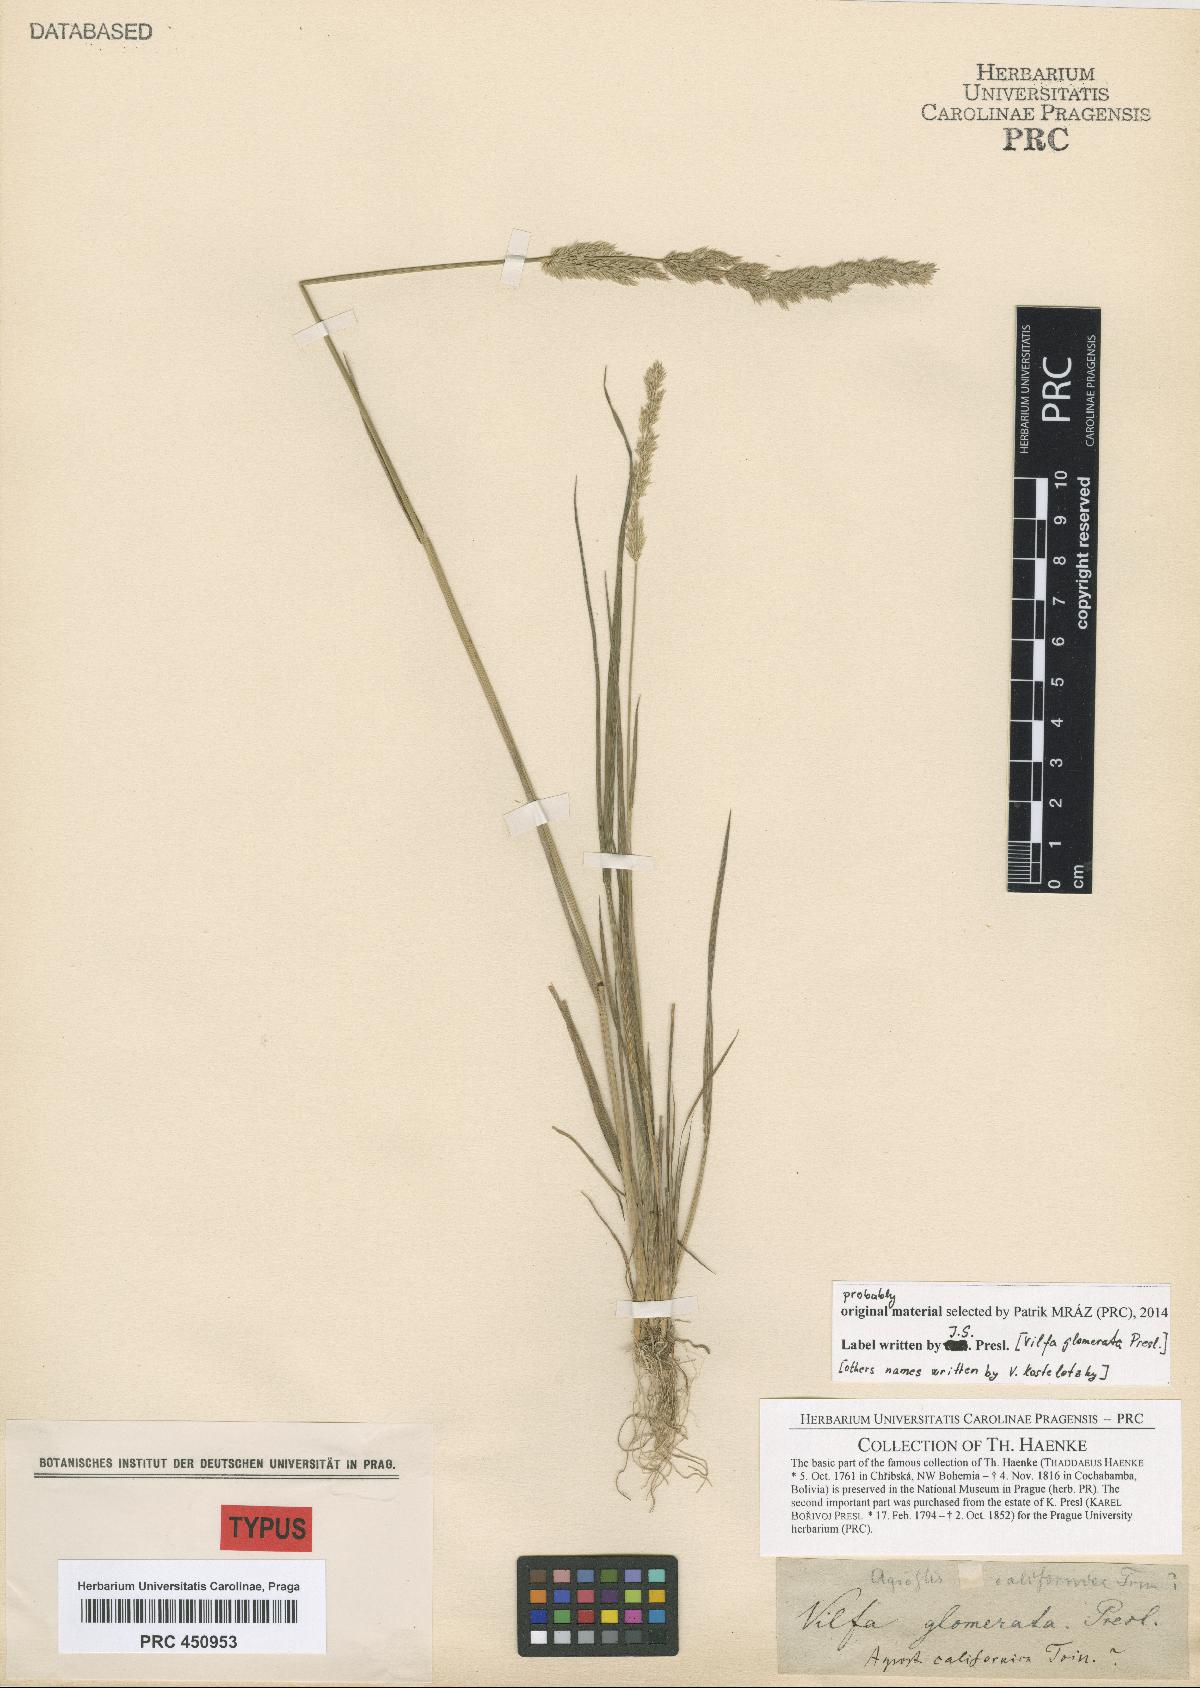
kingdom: Plantae
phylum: Tracheophyta
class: Liliopsida
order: Poales
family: Poaceae
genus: Agrostis
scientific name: Agrostis tolucensis
